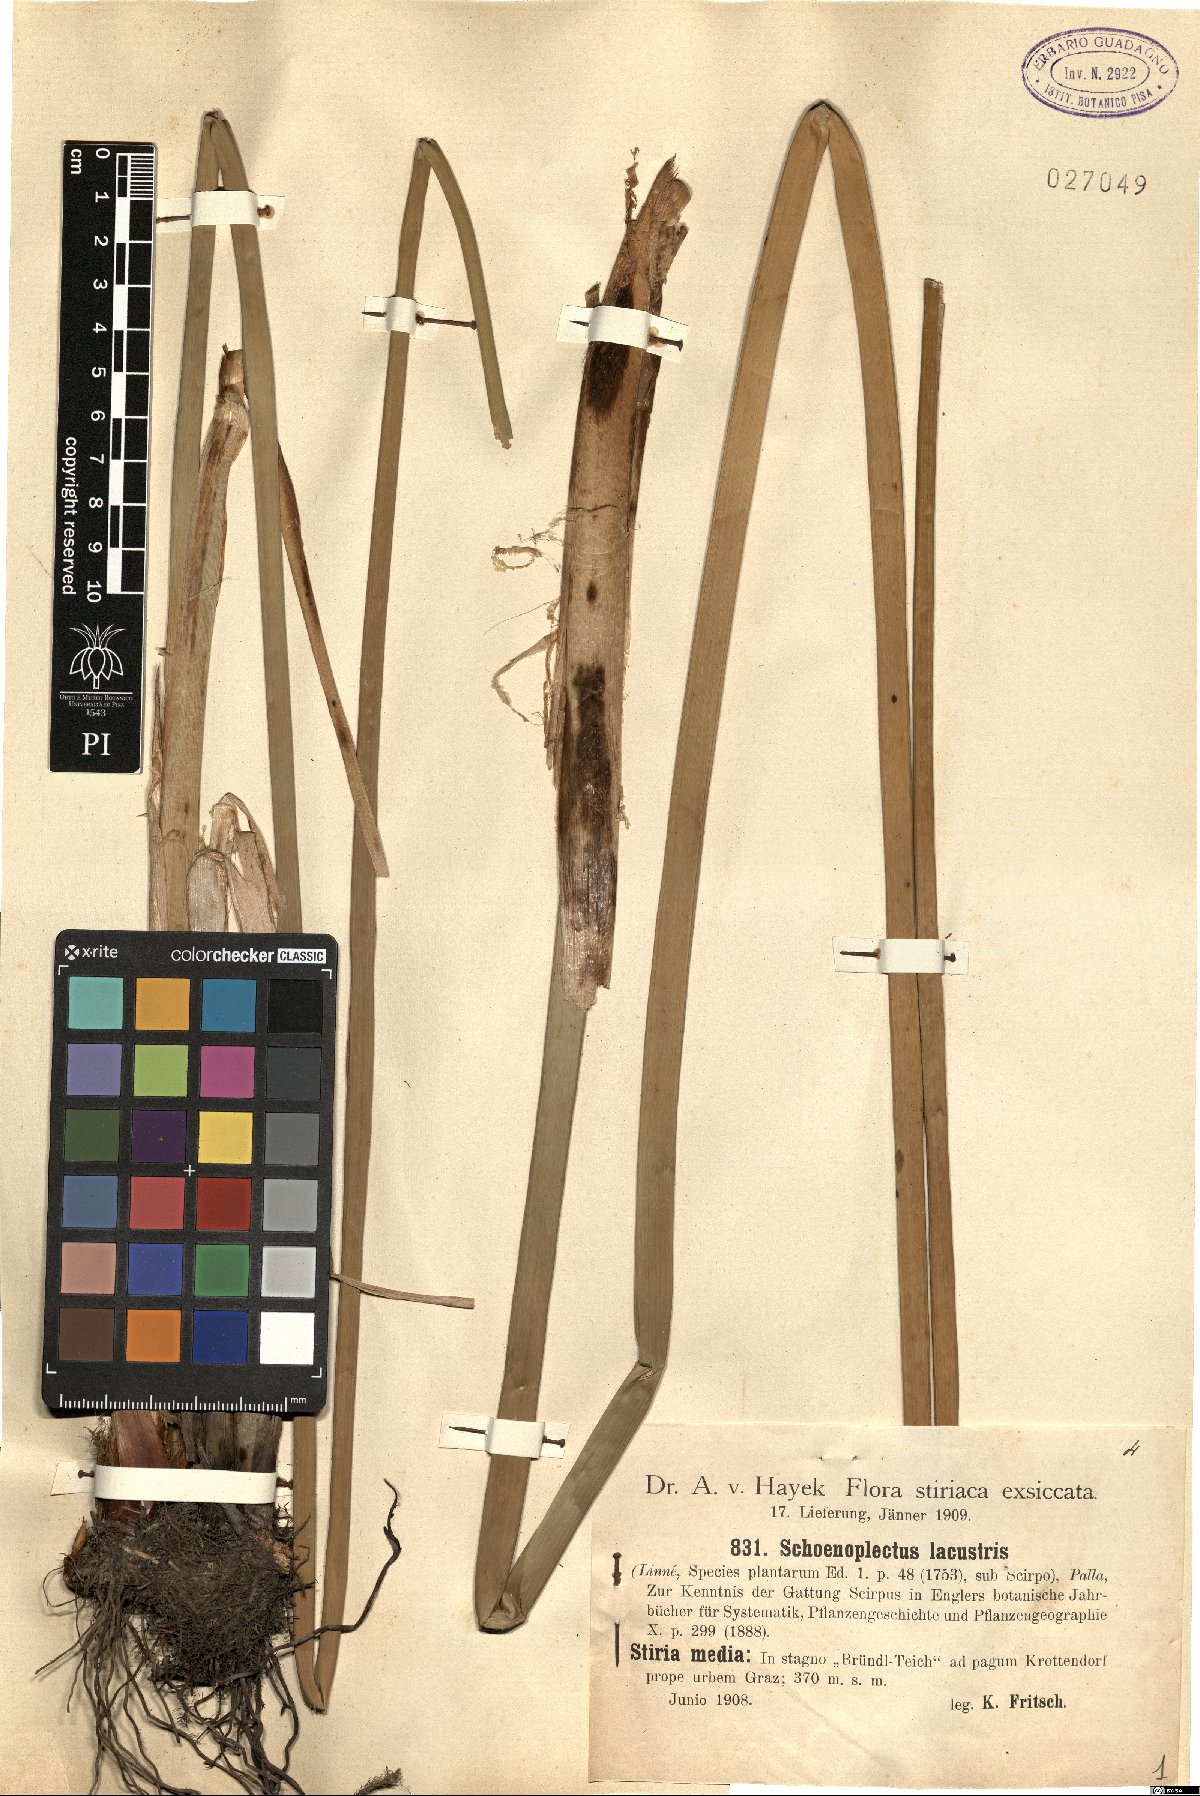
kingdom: Plantae
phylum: Tracheophyta
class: Liliopsida
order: Poales
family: Cyperaceae
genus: Schoenoplectus
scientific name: Schoenoplectus lacustris
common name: Common club-rush
